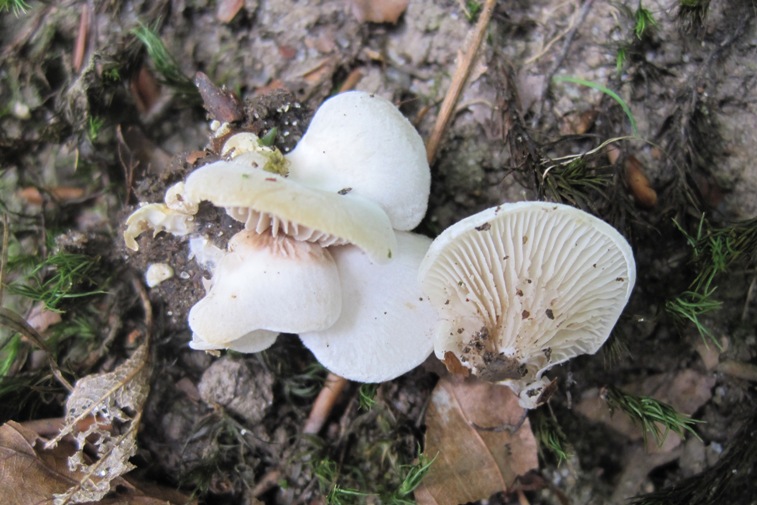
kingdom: Fungi
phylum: Basidiomycota
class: Agaricomycetes
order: Agaricales
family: Crepidotaceae
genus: Crepidotus
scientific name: Crepidotus autochthonus
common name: skæv muslingesvamp
